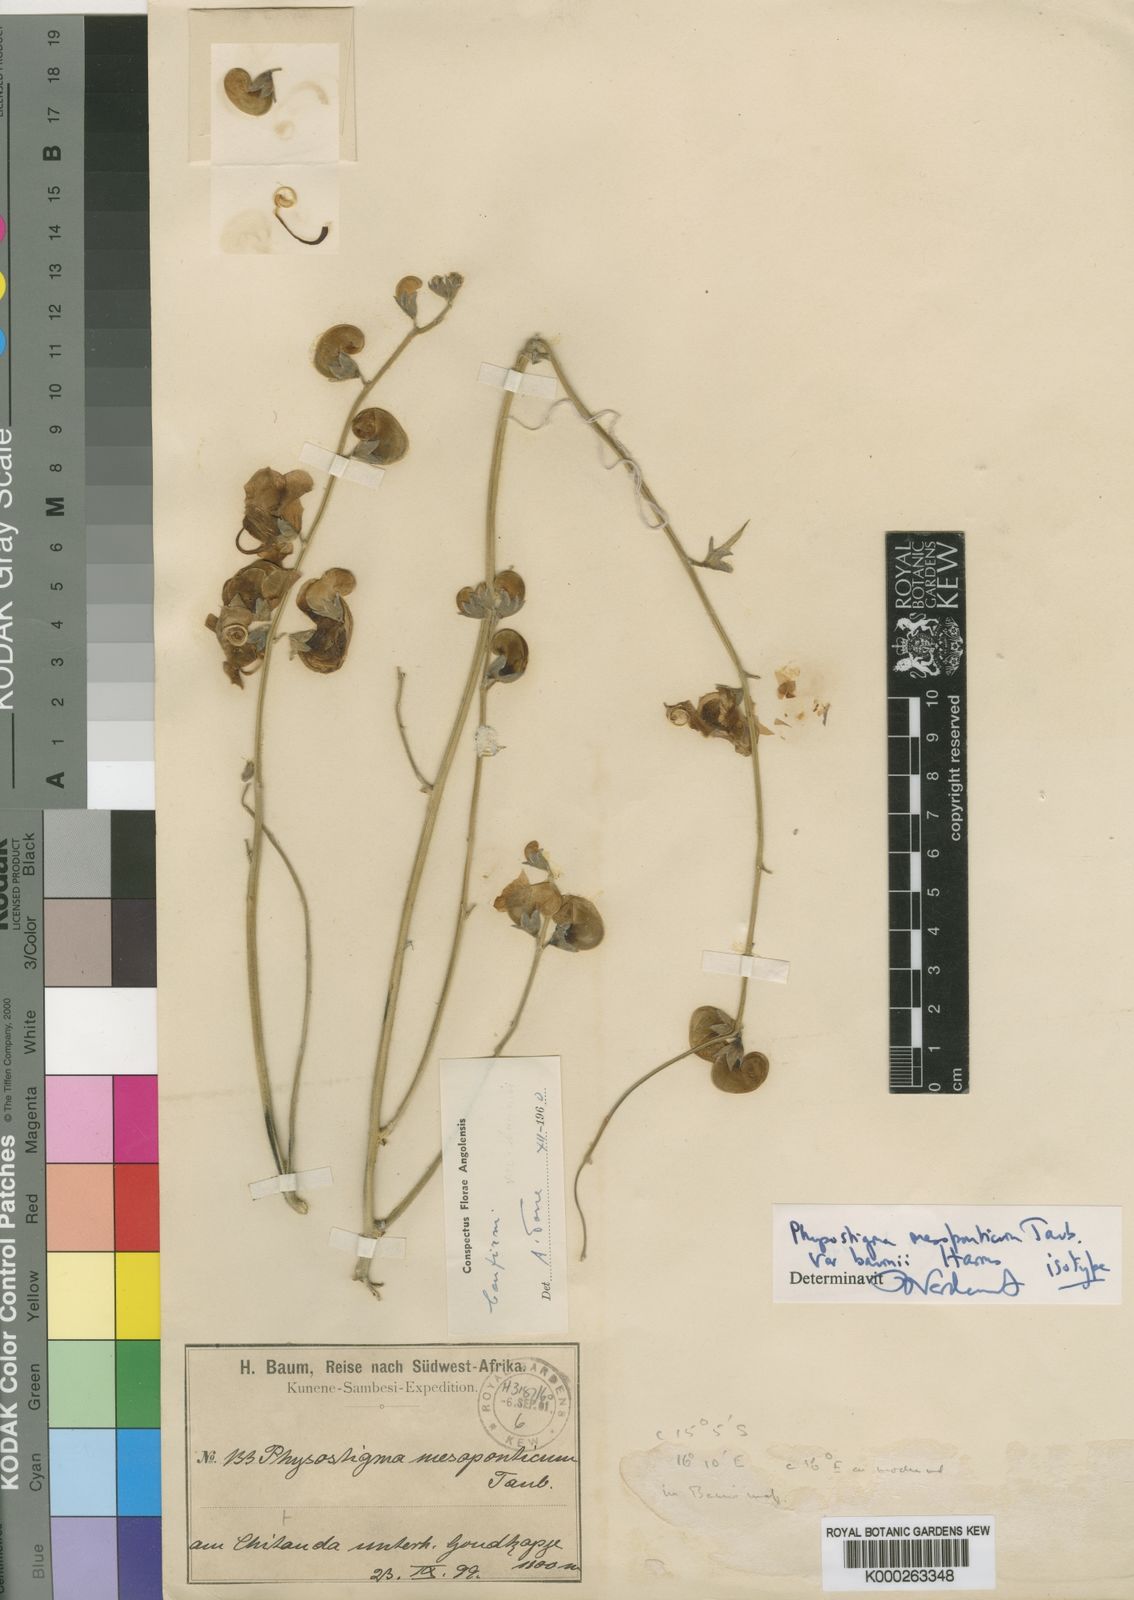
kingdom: Plantae
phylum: Tracheophyta
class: Magnoliopsida
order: Fabales
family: Fabaceae
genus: Physostigma
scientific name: Physostigma
